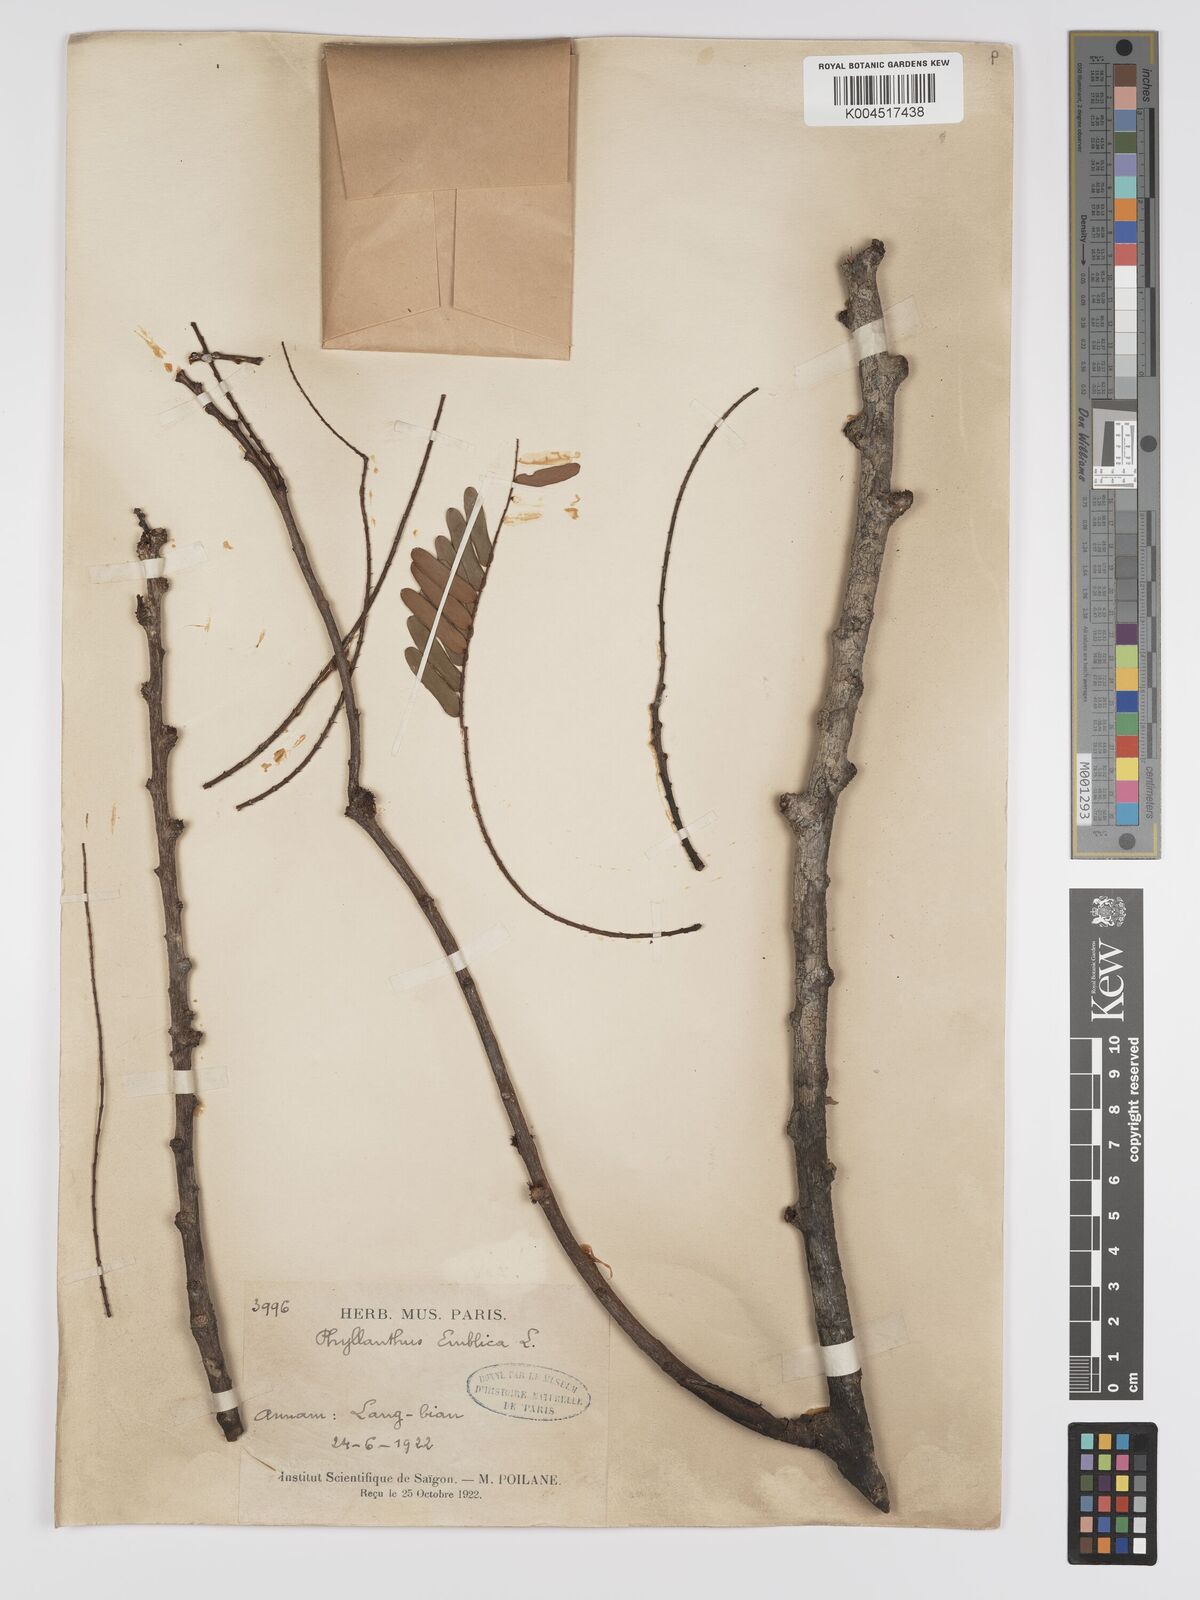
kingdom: Plantae
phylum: Tracheophyta
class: Magnoliopsida
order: Malpighiales
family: Phyllanthaceae
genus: Phyllanthus
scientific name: Phyllanthus emblica
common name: Indian gooseberry
